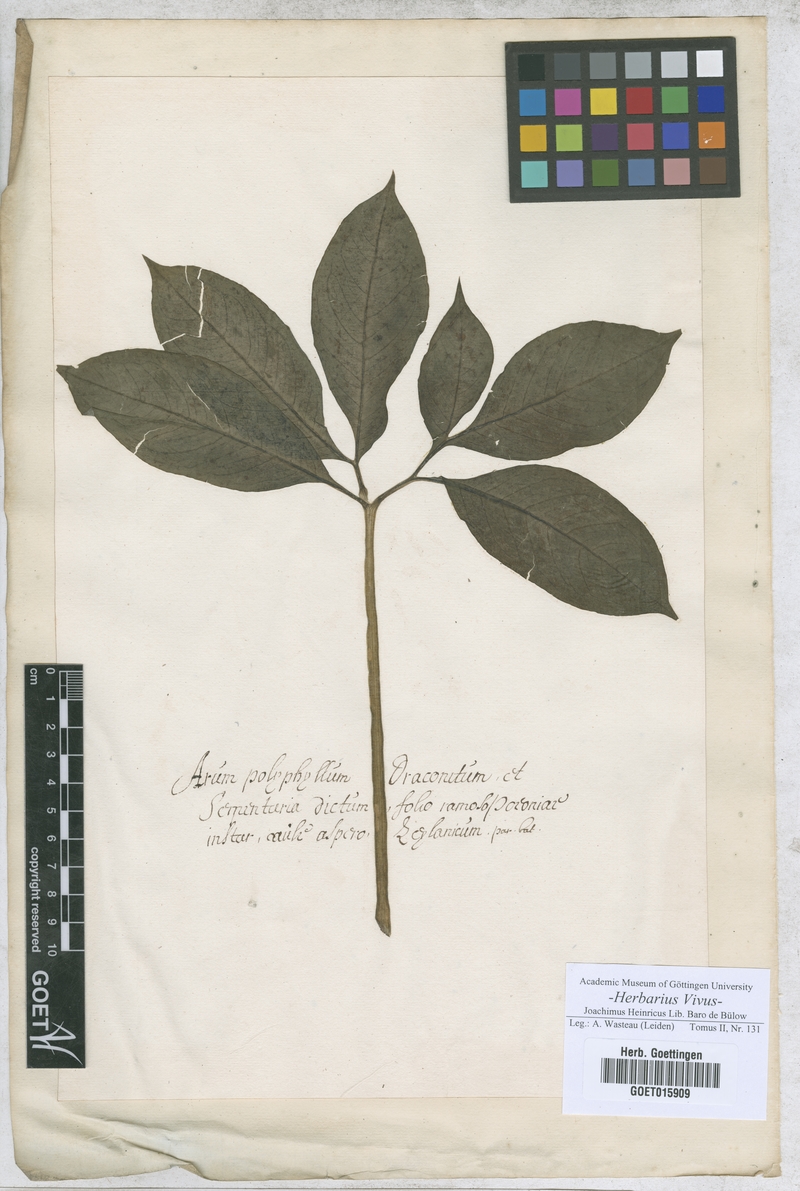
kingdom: Plantae
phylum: Tracheophyta
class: Liliopsida
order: Alismatales
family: Araceae
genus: Arum
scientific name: Arum
